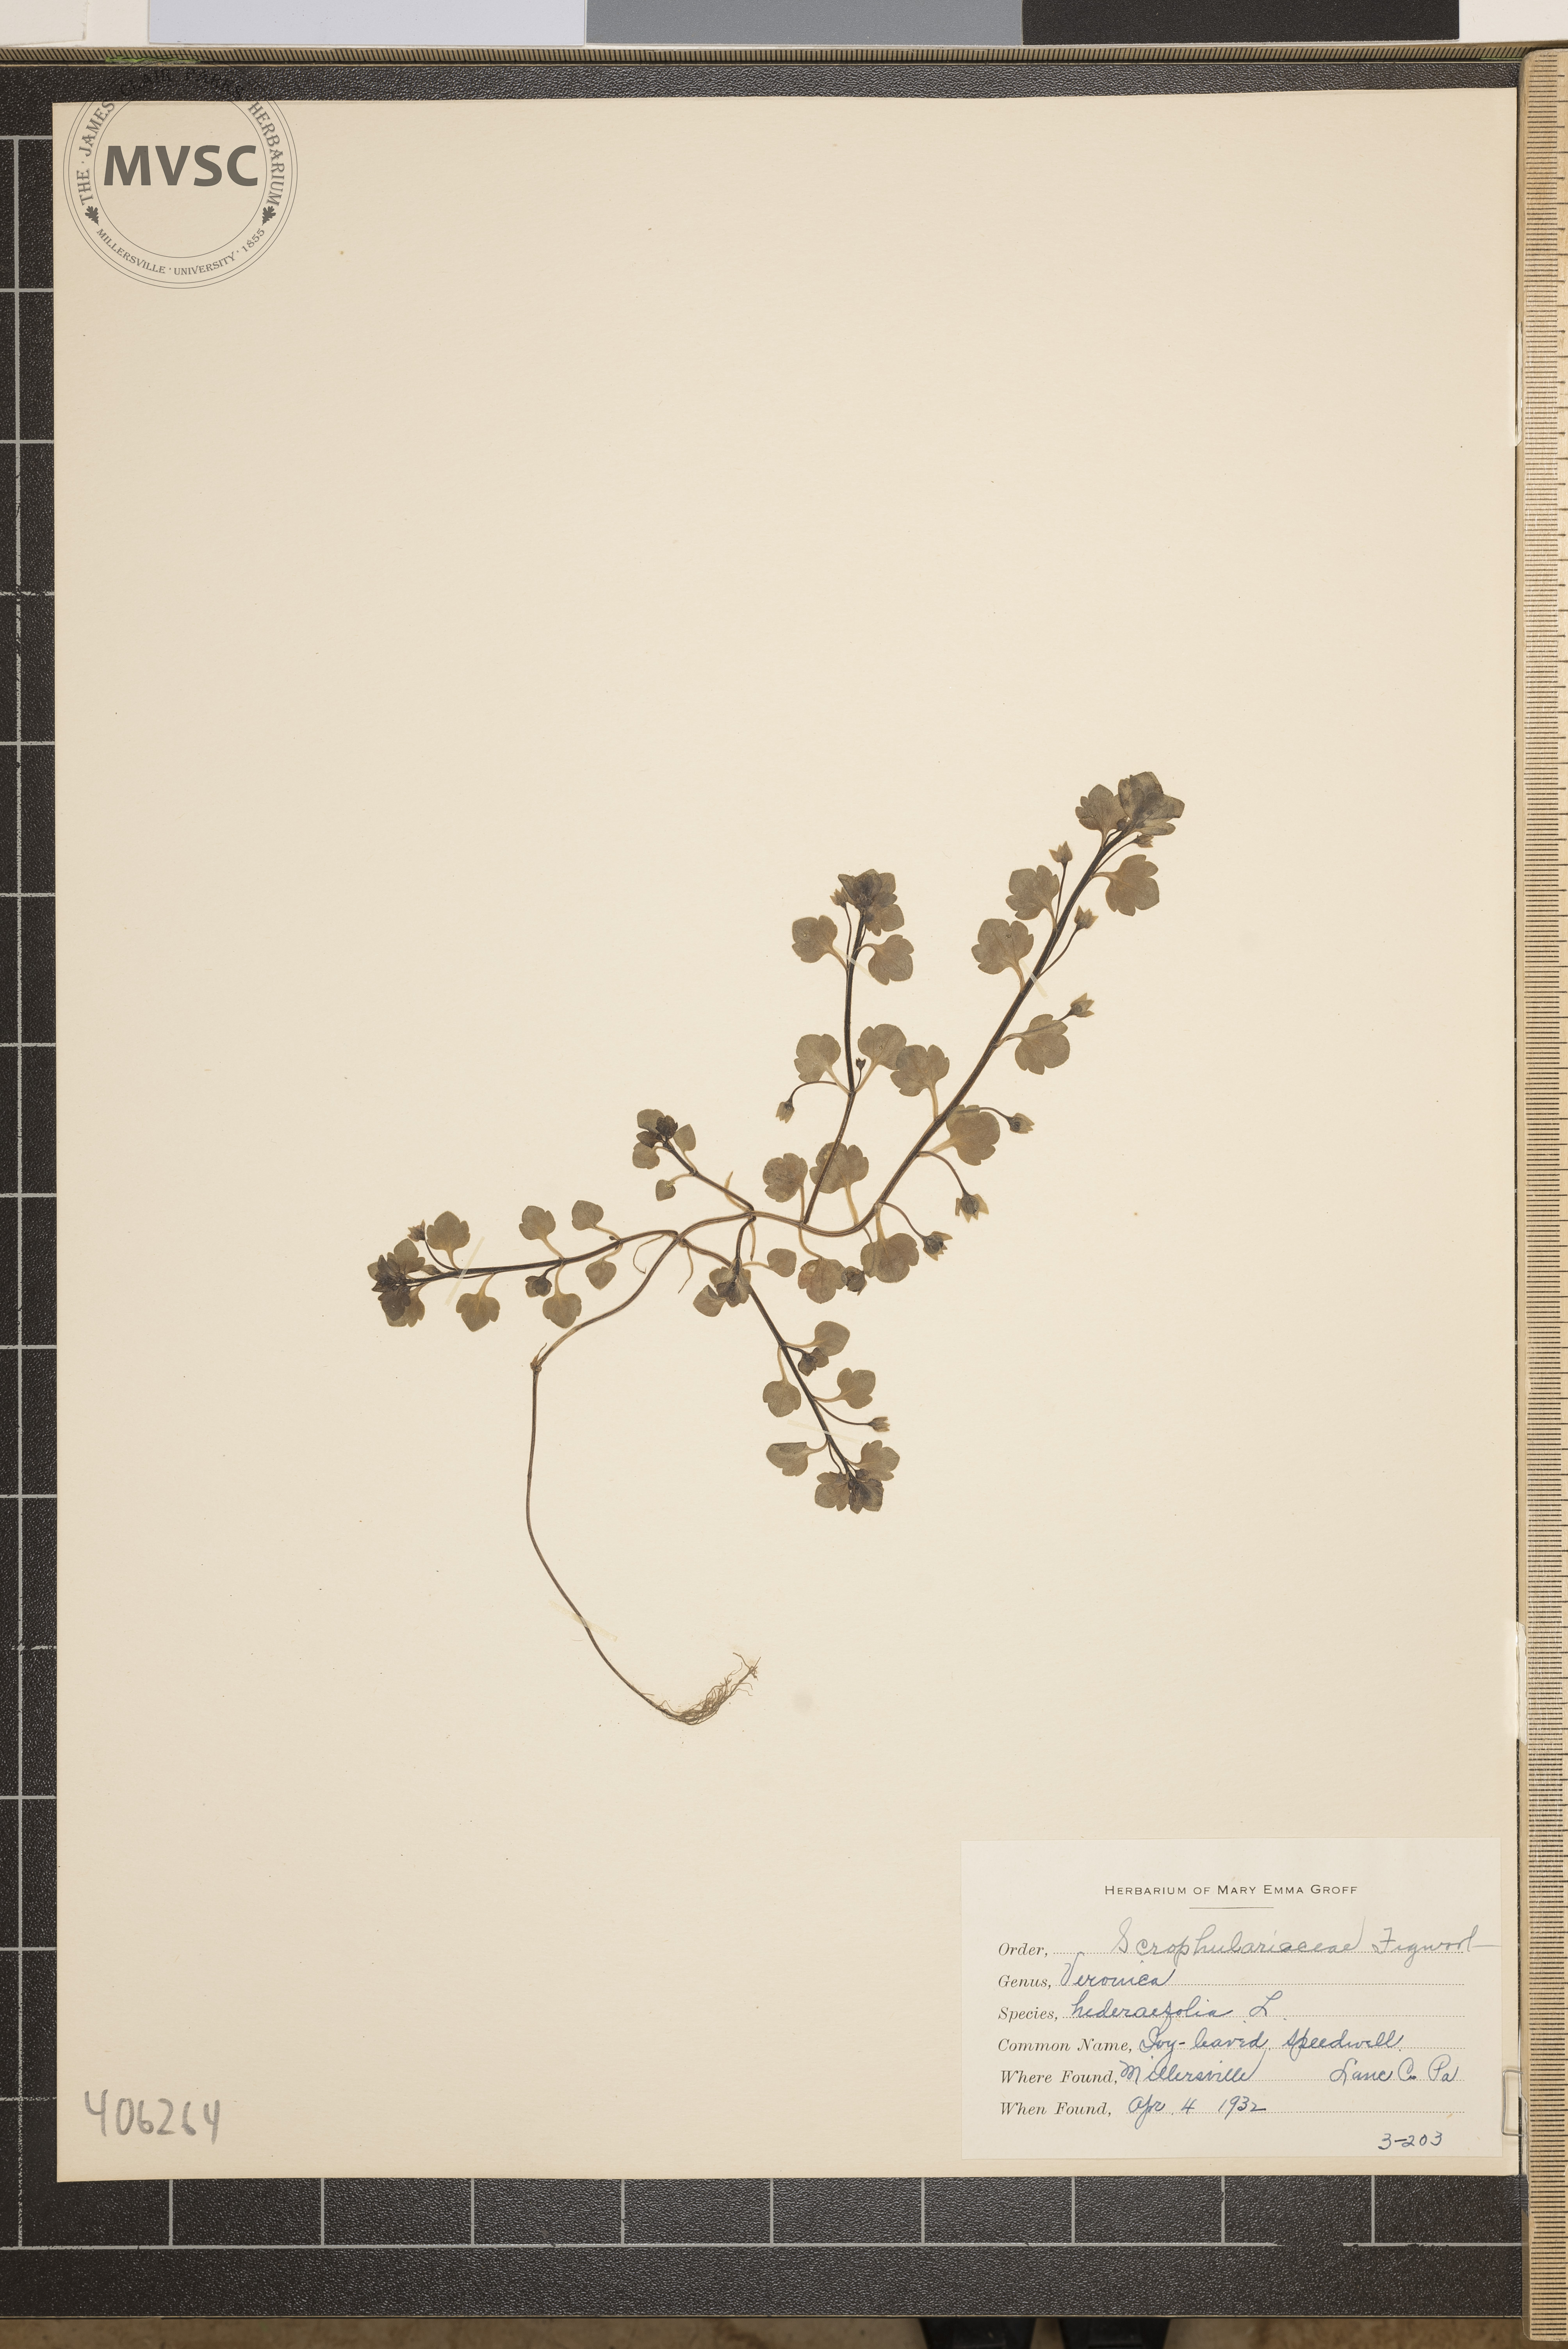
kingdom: Plantae
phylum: Tracheophyta
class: Magnoliopsida
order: Lamiales
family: Plantaginaceae
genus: Veronica
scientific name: Veronica hederifolia
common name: Ivy-leaved Speedwell
